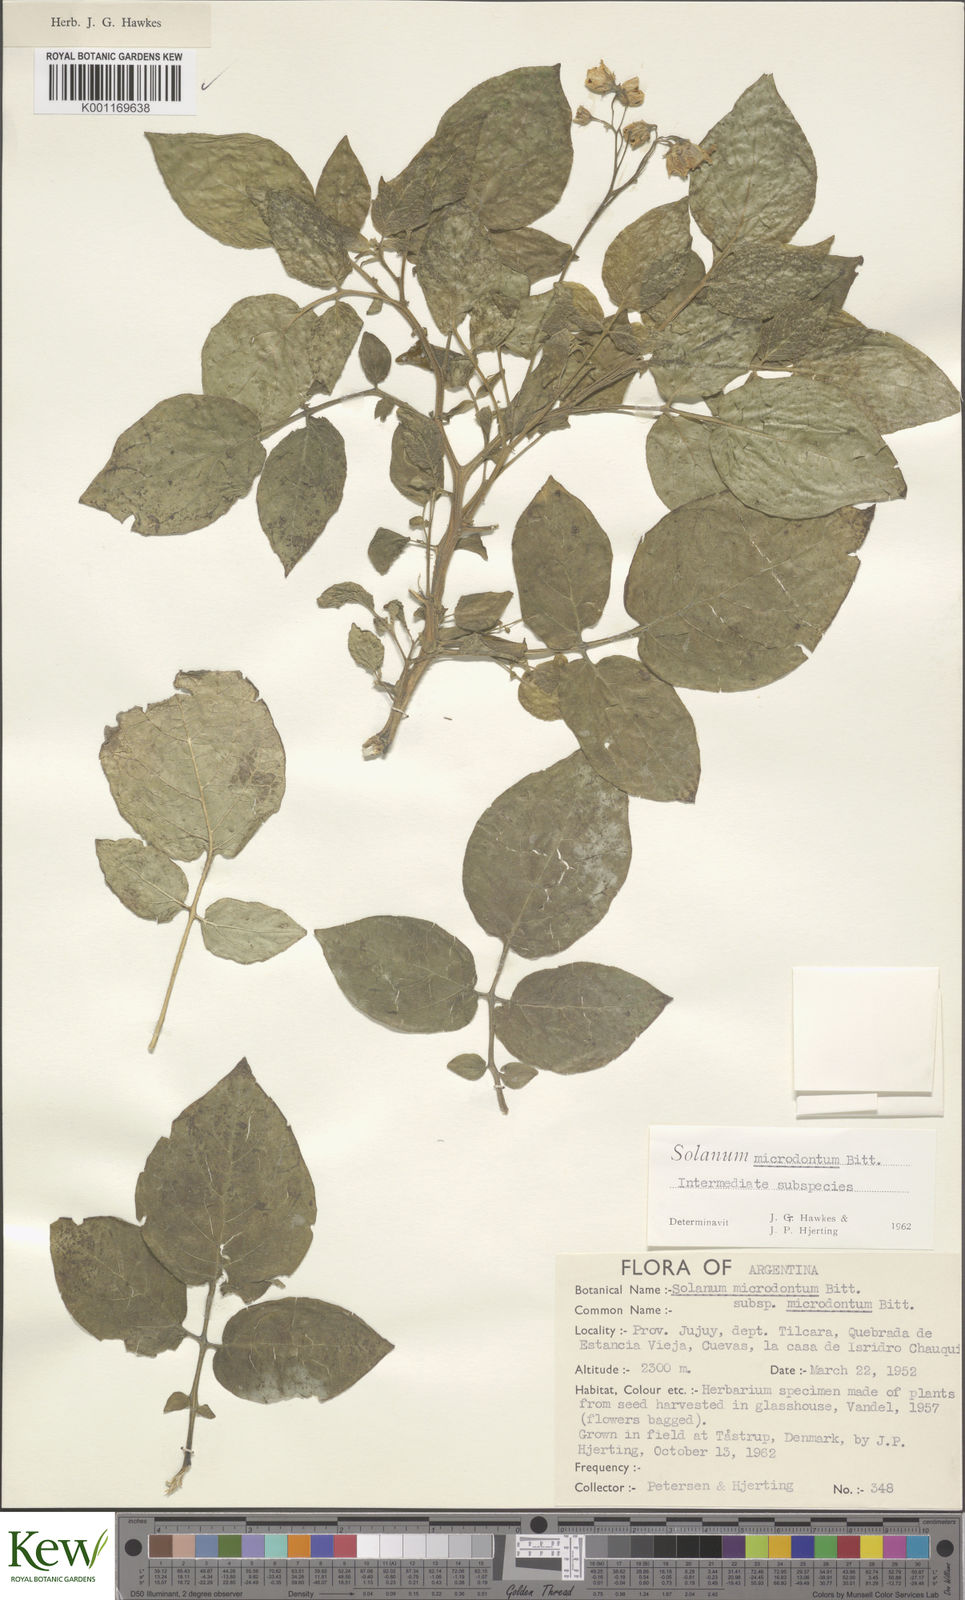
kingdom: Plantae
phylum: Tracheophyta
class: Magnoliopsida
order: Solanales
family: Solanaceae
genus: Solanum
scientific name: Solanum microdontum
